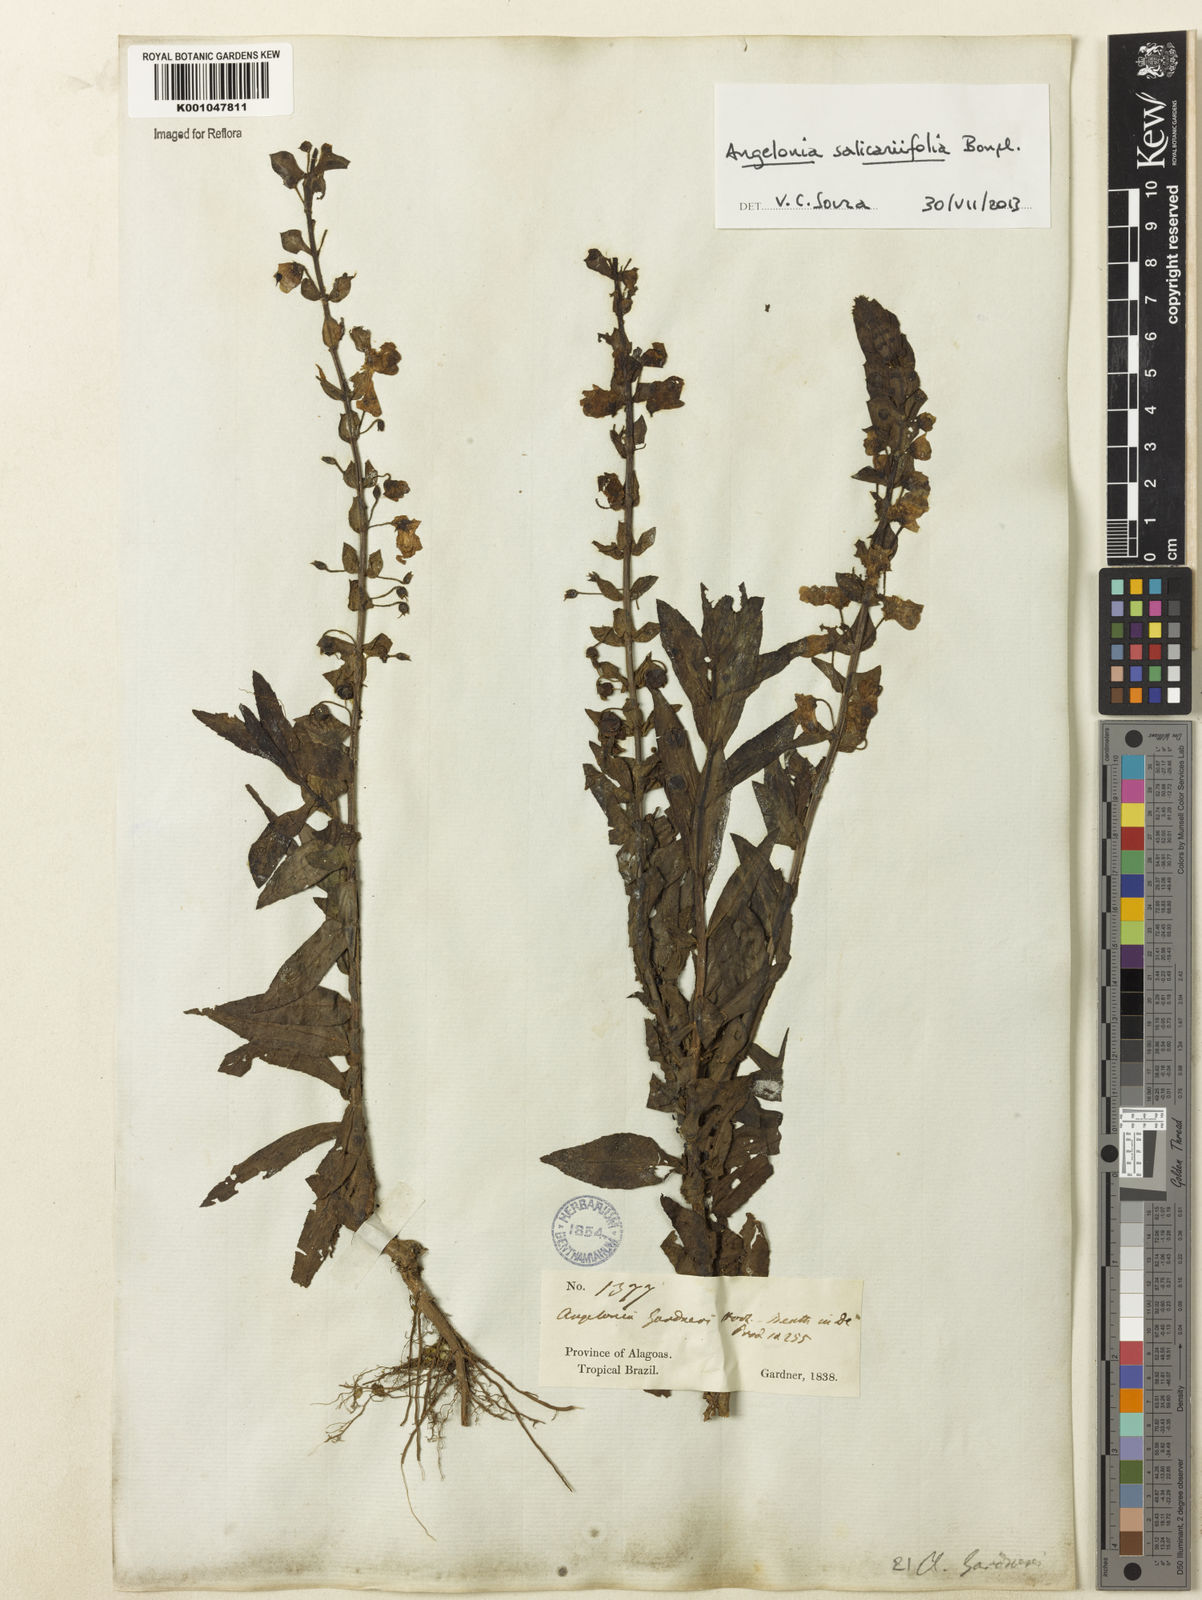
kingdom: Plantae
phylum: Tracheophyta
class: Magnoliopsida
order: Lamiales
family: Plantaginaceae
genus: Angelonia
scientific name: Angelonia salicariifolia
